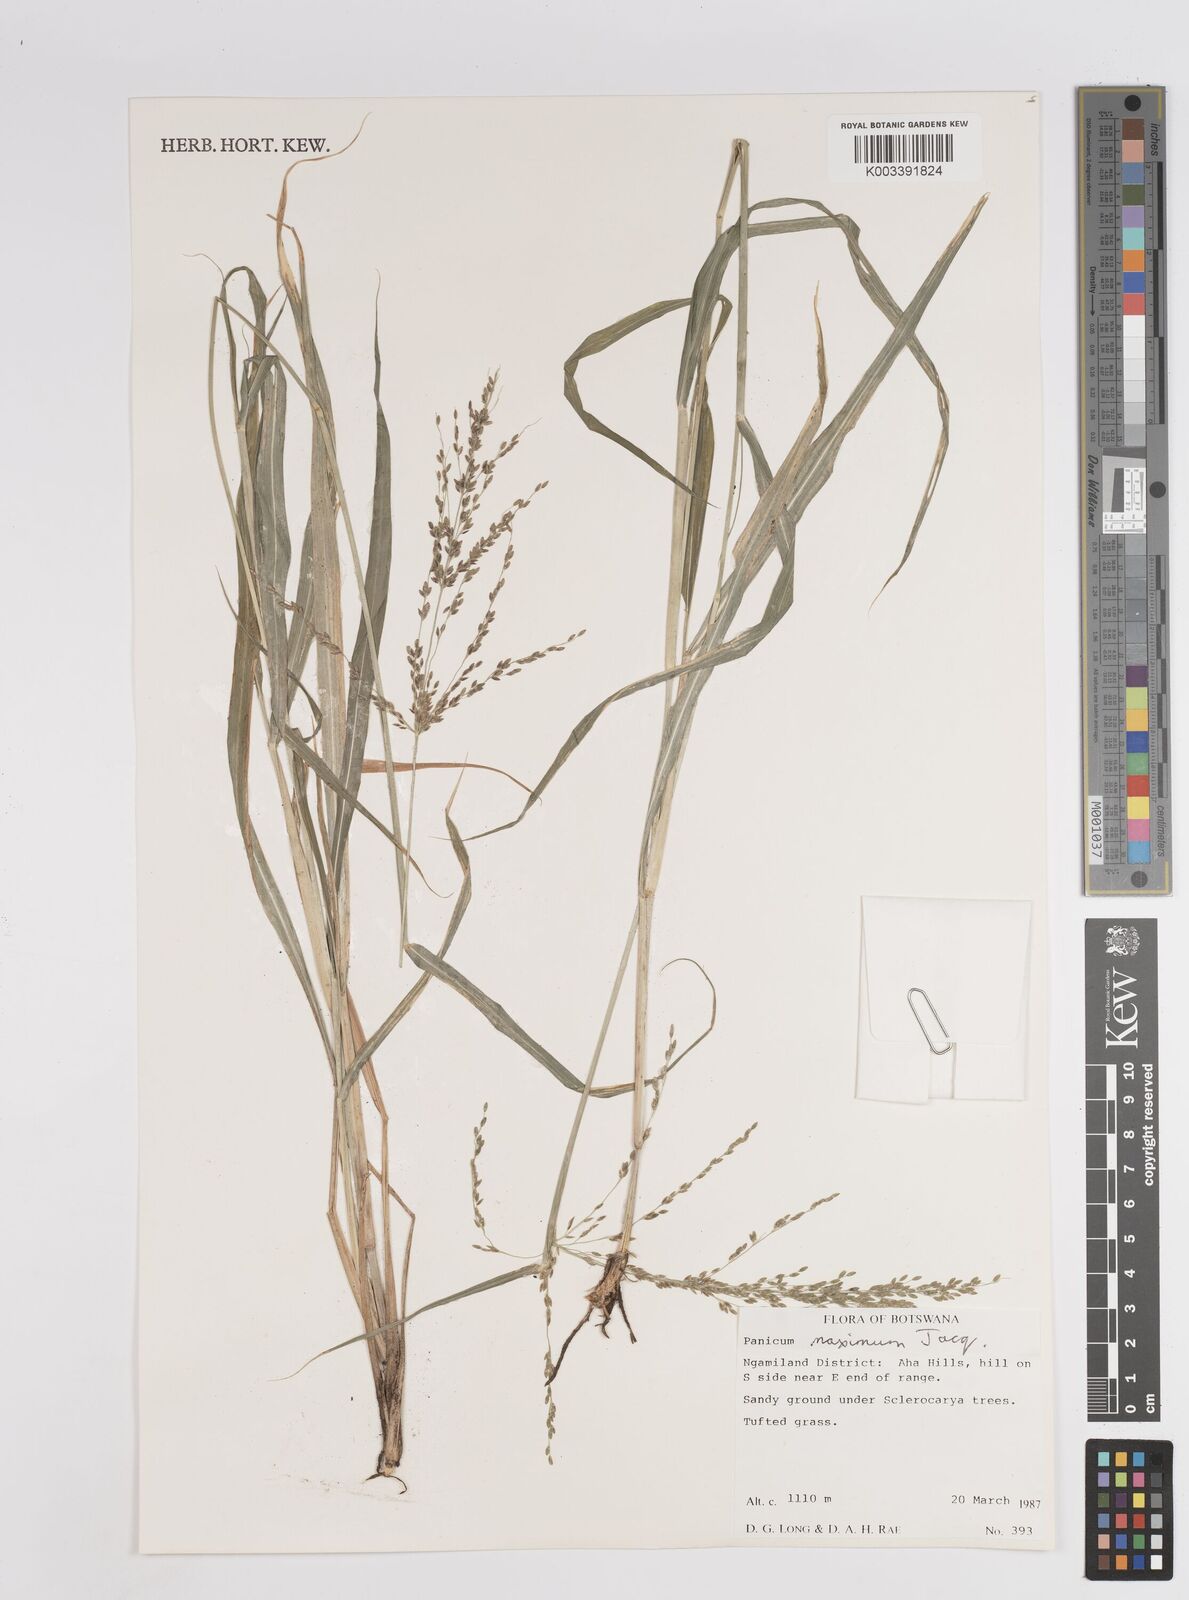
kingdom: Plantae
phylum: Tracheophyta
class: Liliopsida
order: Poales
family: Poaceae
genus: Megathyrsus
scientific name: Megathyrsus maximus
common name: Guineagrass
